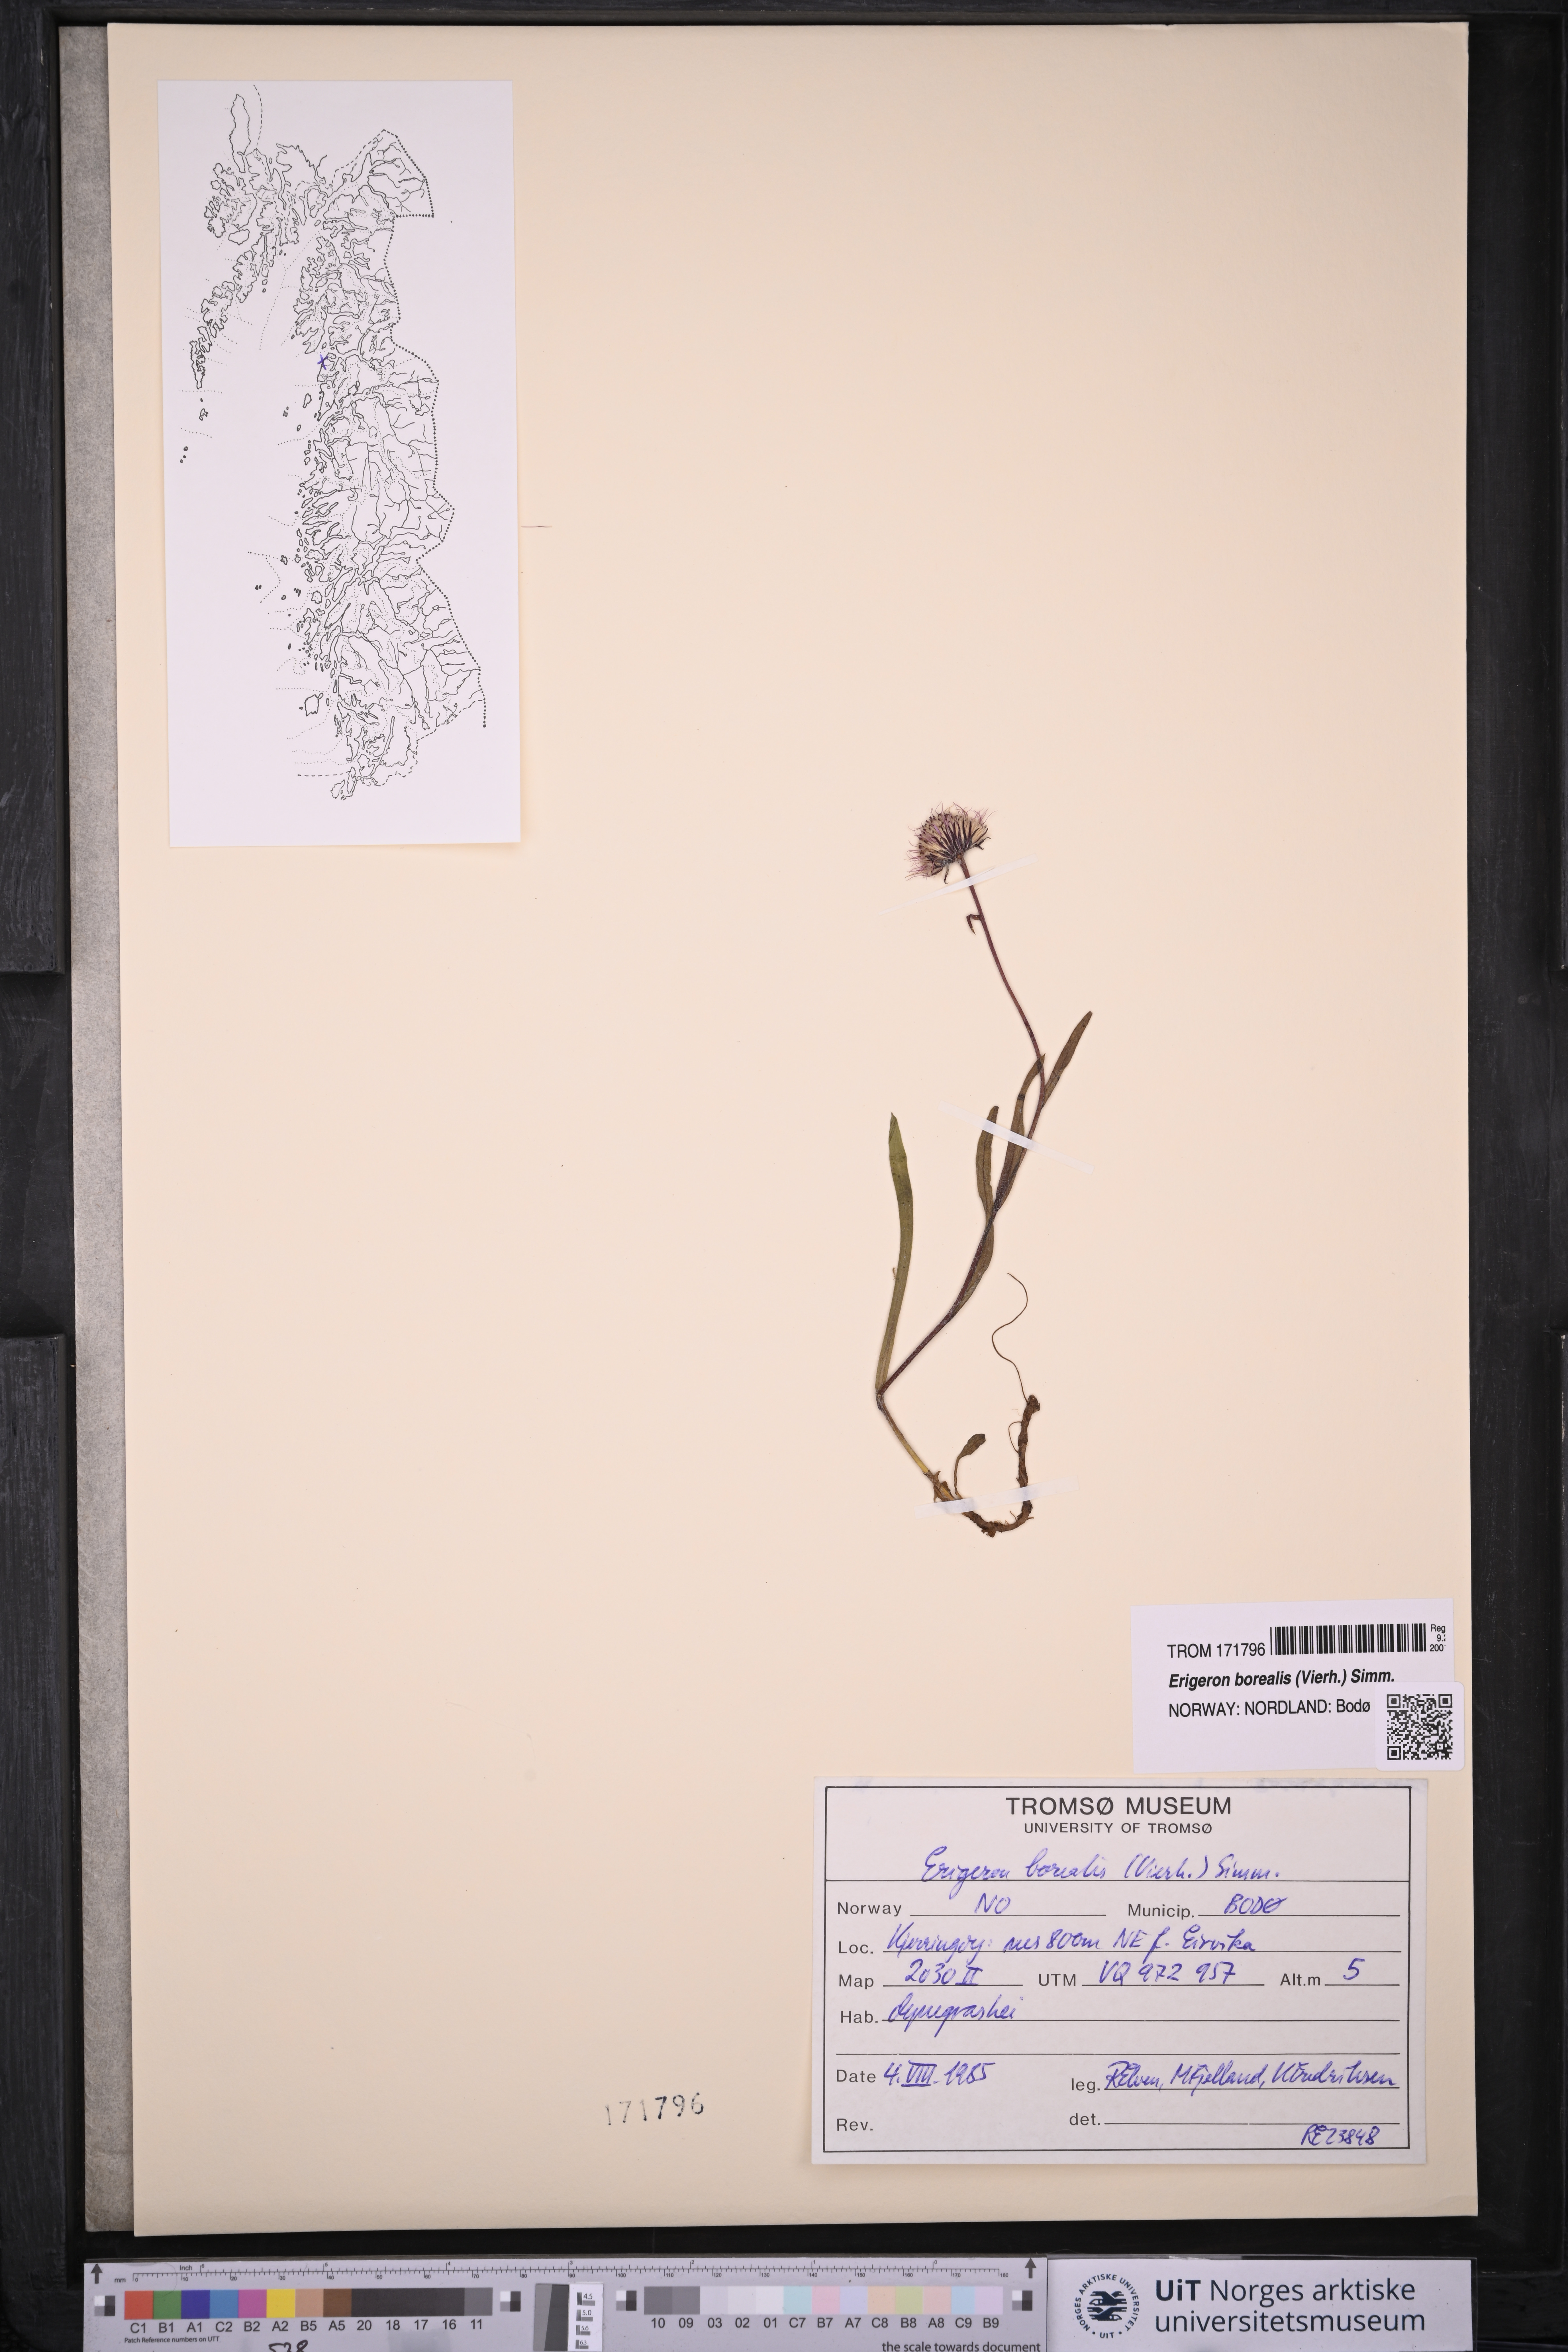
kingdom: Plantae
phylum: Tracheophyta
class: Magnoliopsida
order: Asterales
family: Asteraceae
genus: Erigeron
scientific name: Erigeron borealis
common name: Alpine fleabane
